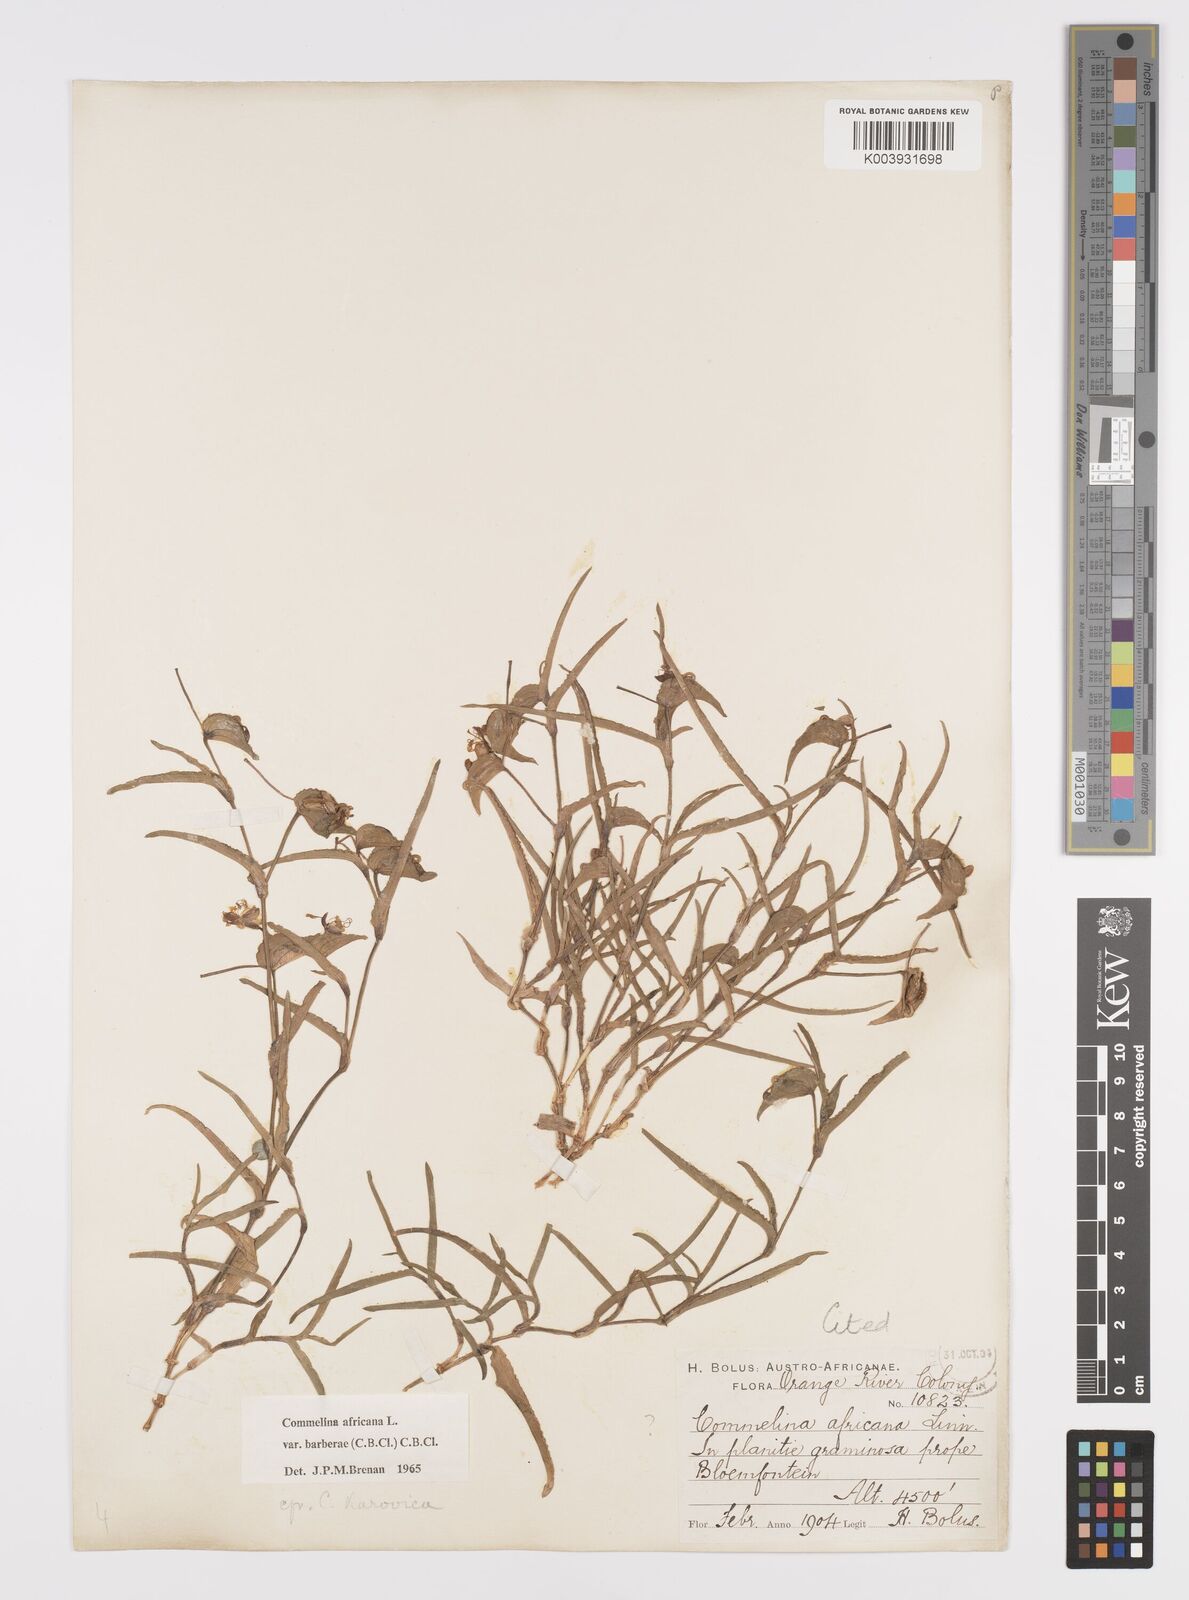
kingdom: Plantae
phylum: Tracheophyta
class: Liliopsida
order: Commelinales
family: Commelinaceae
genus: Commelina
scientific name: Commelina africana
